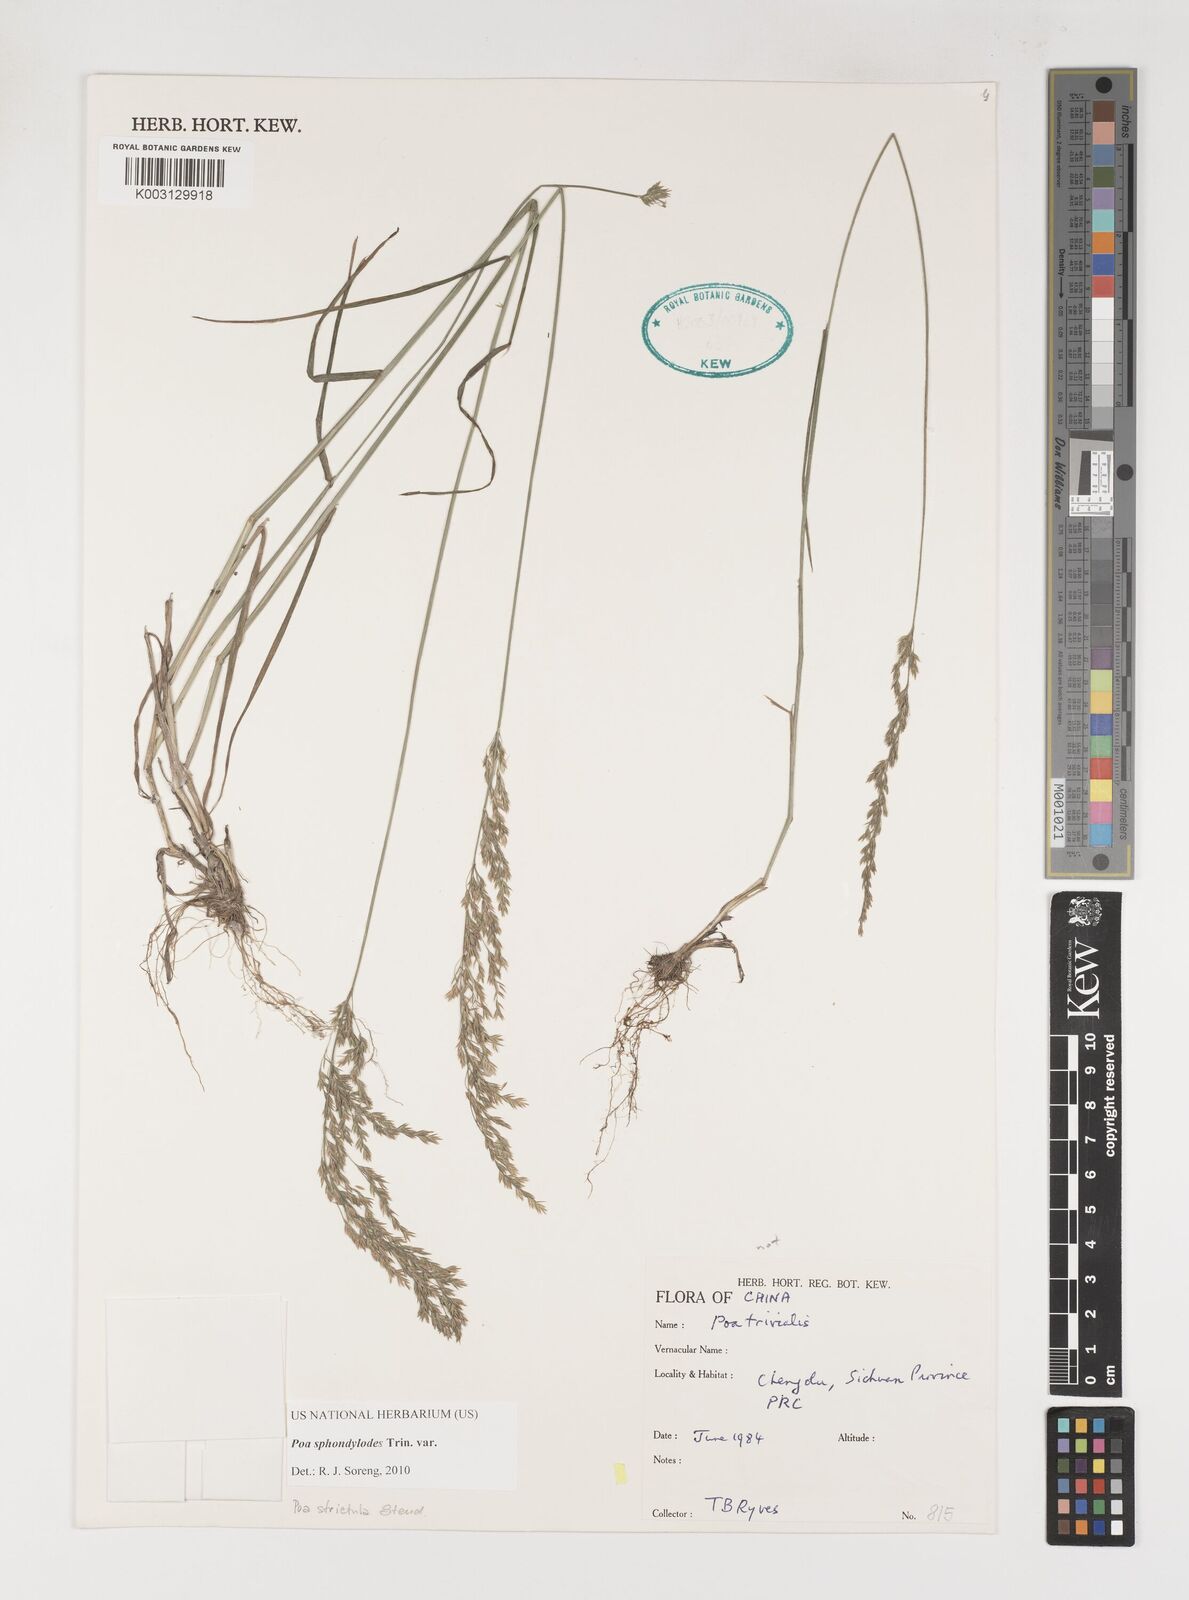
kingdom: Plantae
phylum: Tracheophyta
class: Liliopsida
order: Poales
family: Poaceae
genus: Poa
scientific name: Poa sphondylodes
